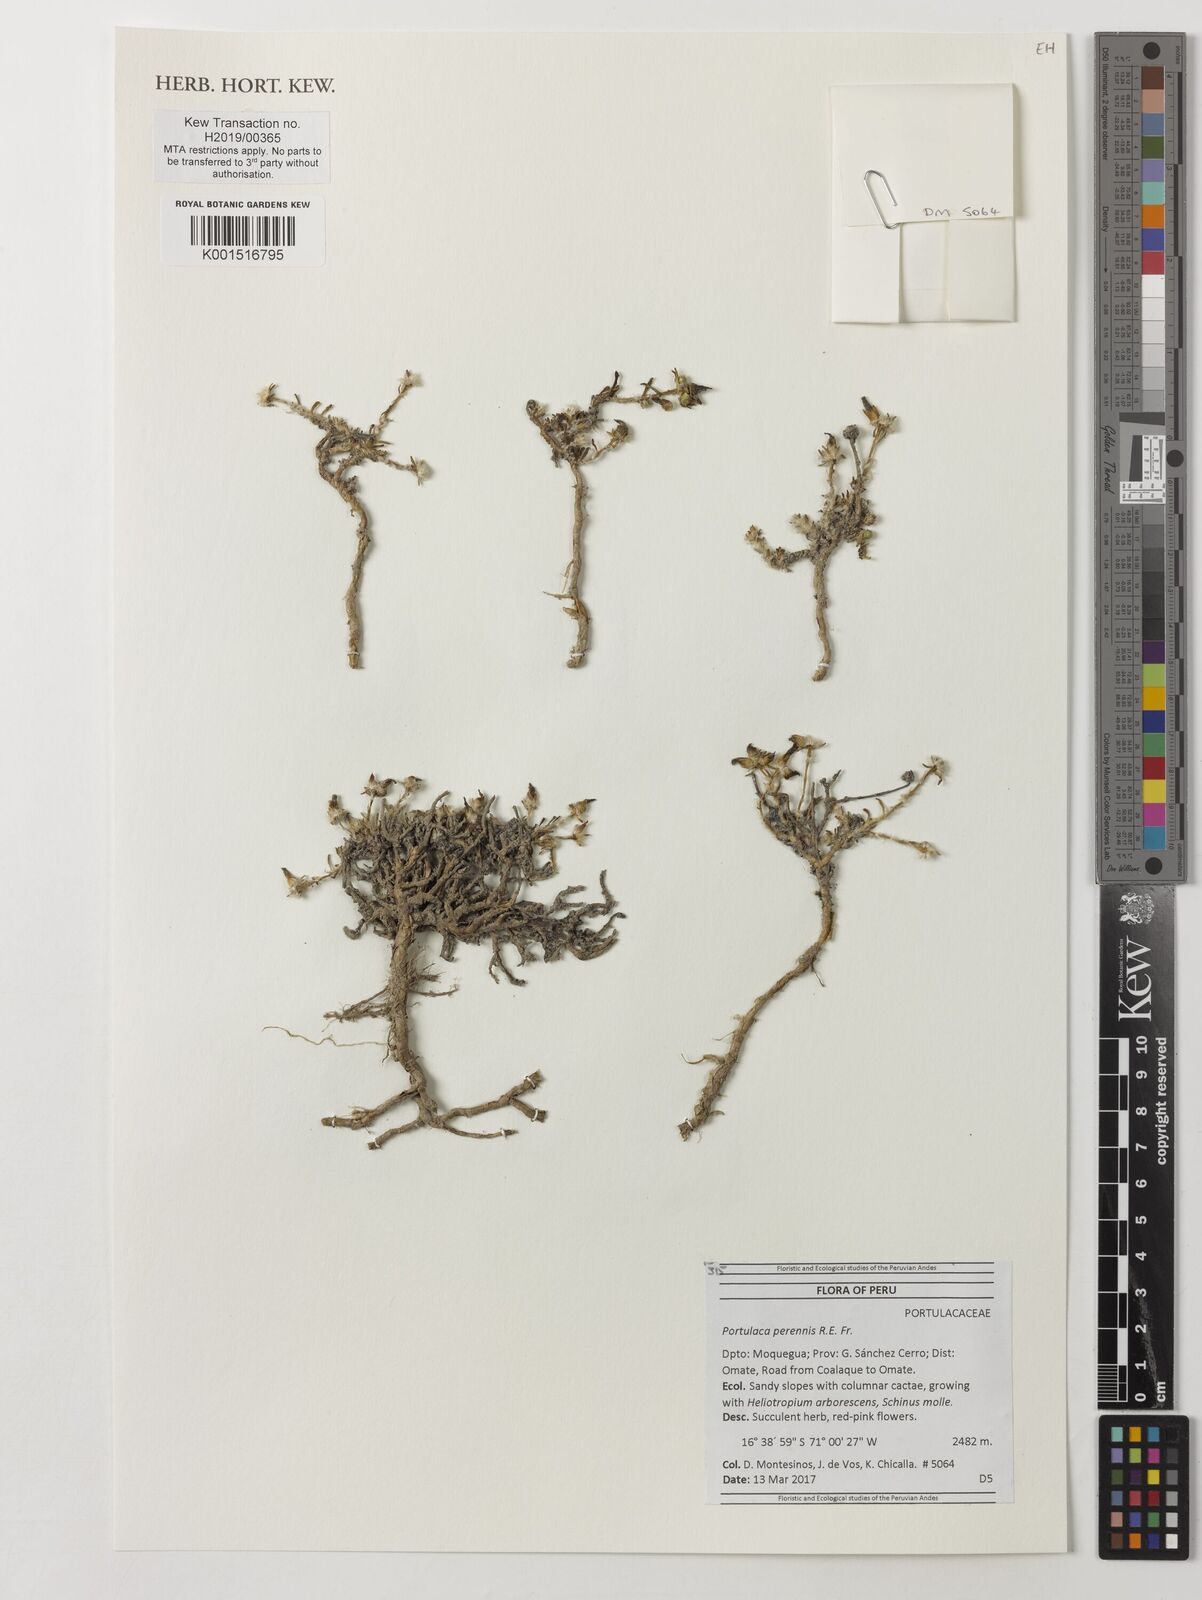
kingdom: Plantae
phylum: Tracheophyta
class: Magnoliopsida
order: Caryophyllales
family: Portulacaceae
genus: Portulaca
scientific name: Portulaca perennis
